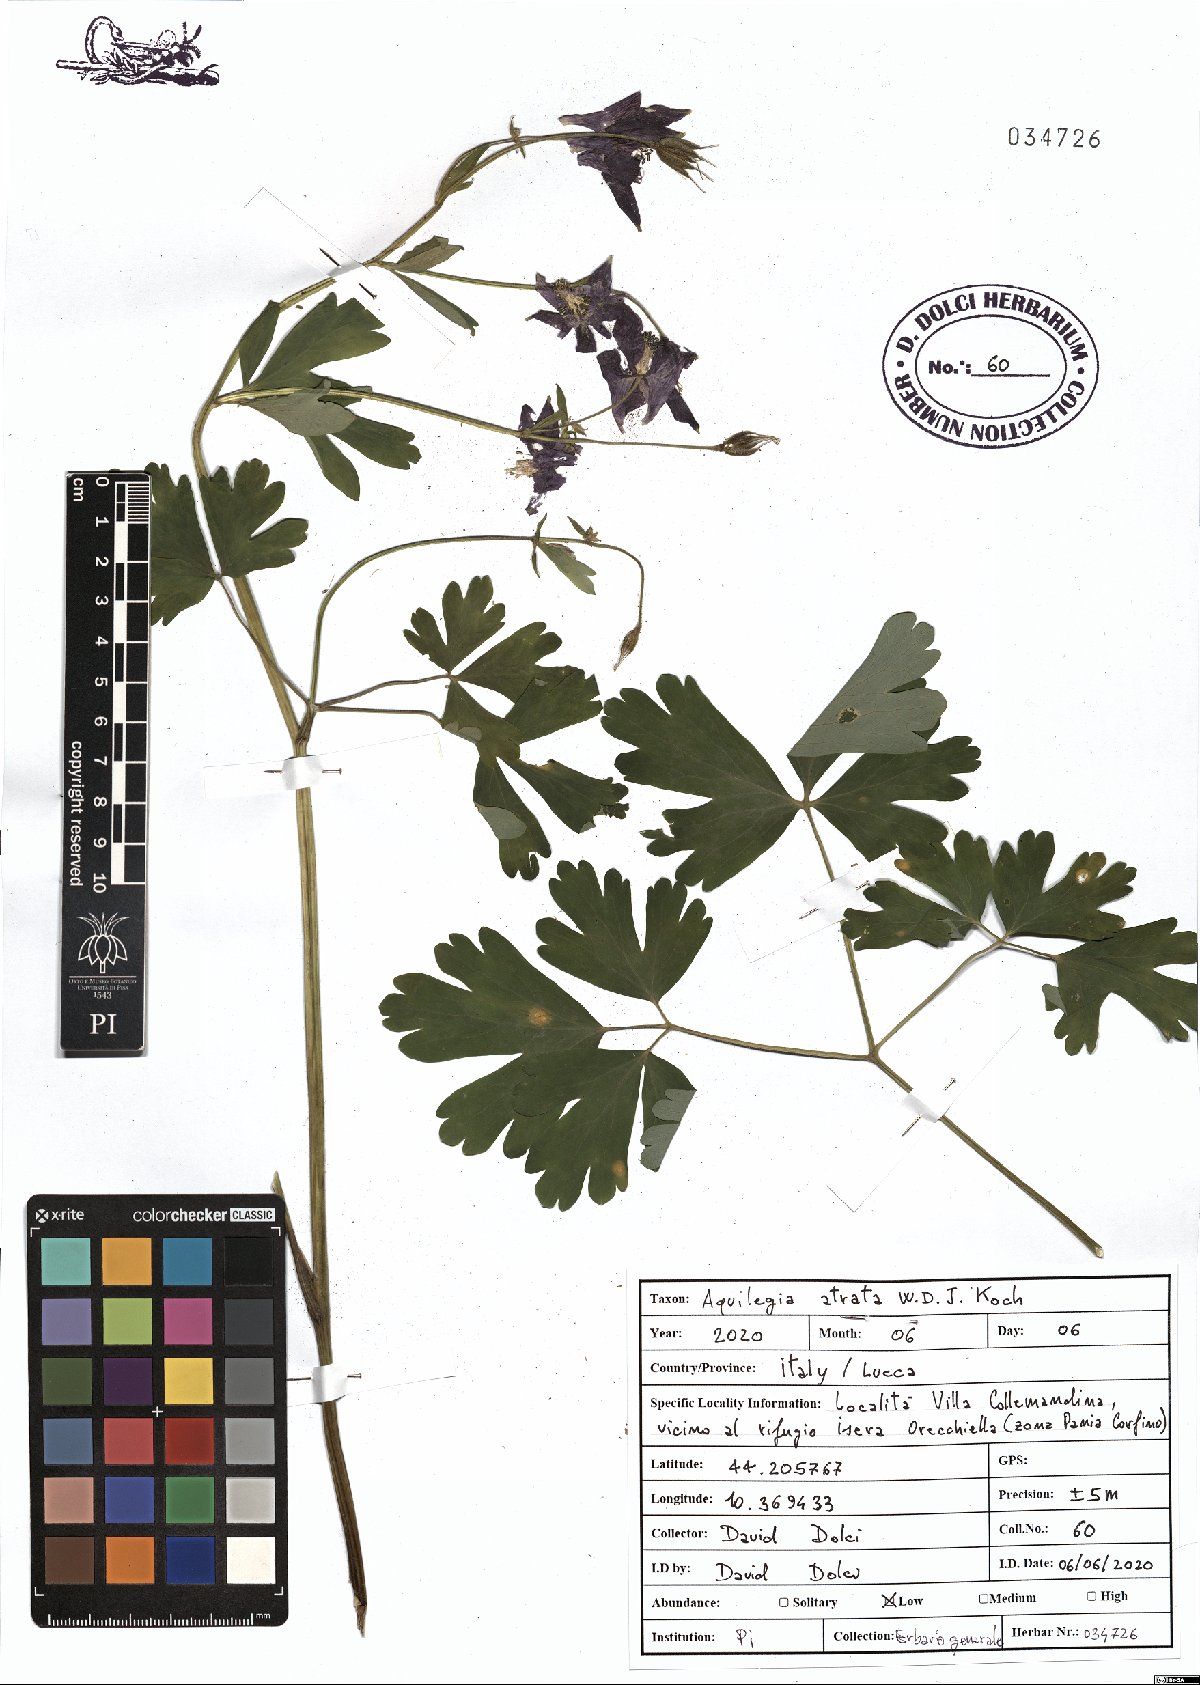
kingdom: Plantae
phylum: Tracheophyta
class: Magnoliopsida
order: Ranunculales
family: Ranunculaceae
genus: Aquilegia
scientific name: Aquilegia atrata
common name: Dark columbine
